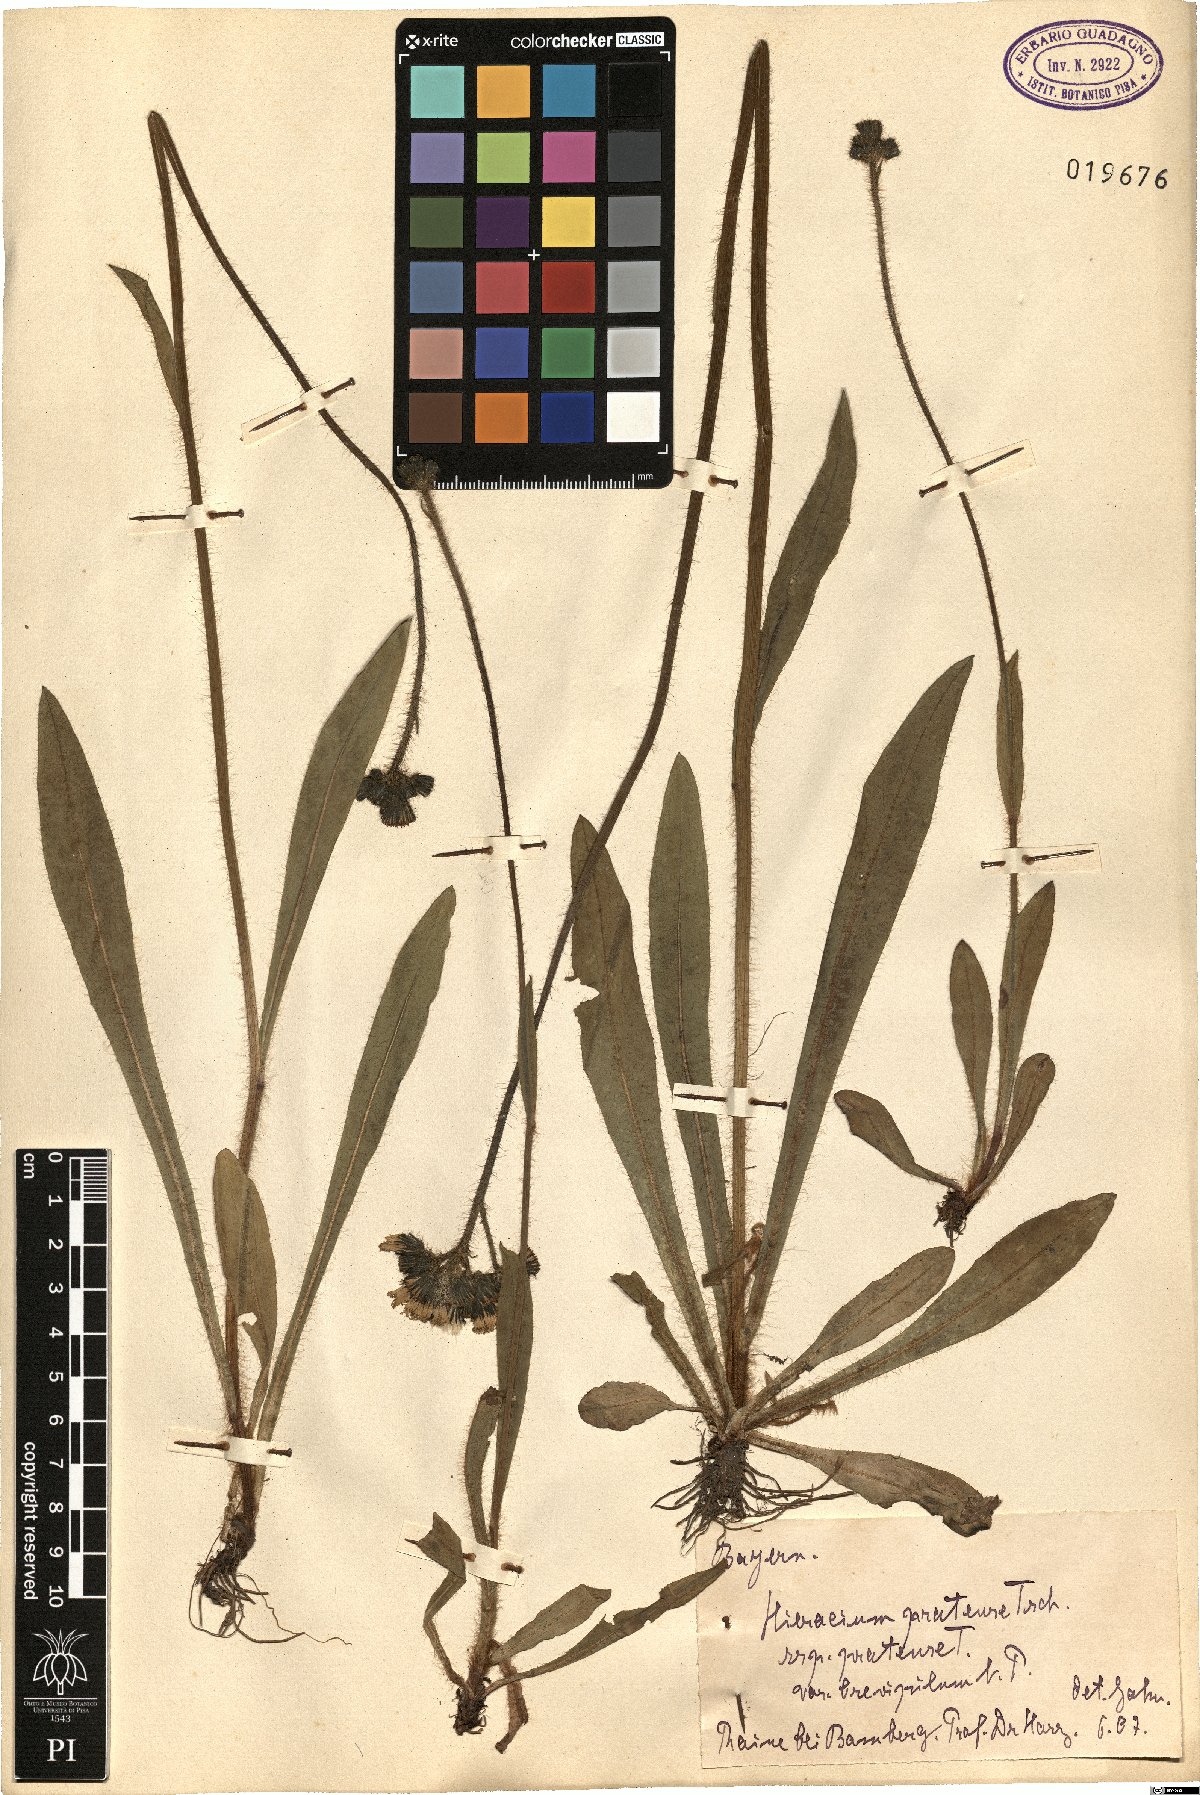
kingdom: Plantae
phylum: Tracheophyta
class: Magnoliopsida
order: Asterales
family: Asteraceae
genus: Pilosella
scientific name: Pilosella caespitosa
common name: Yellow fox-and-cubs
